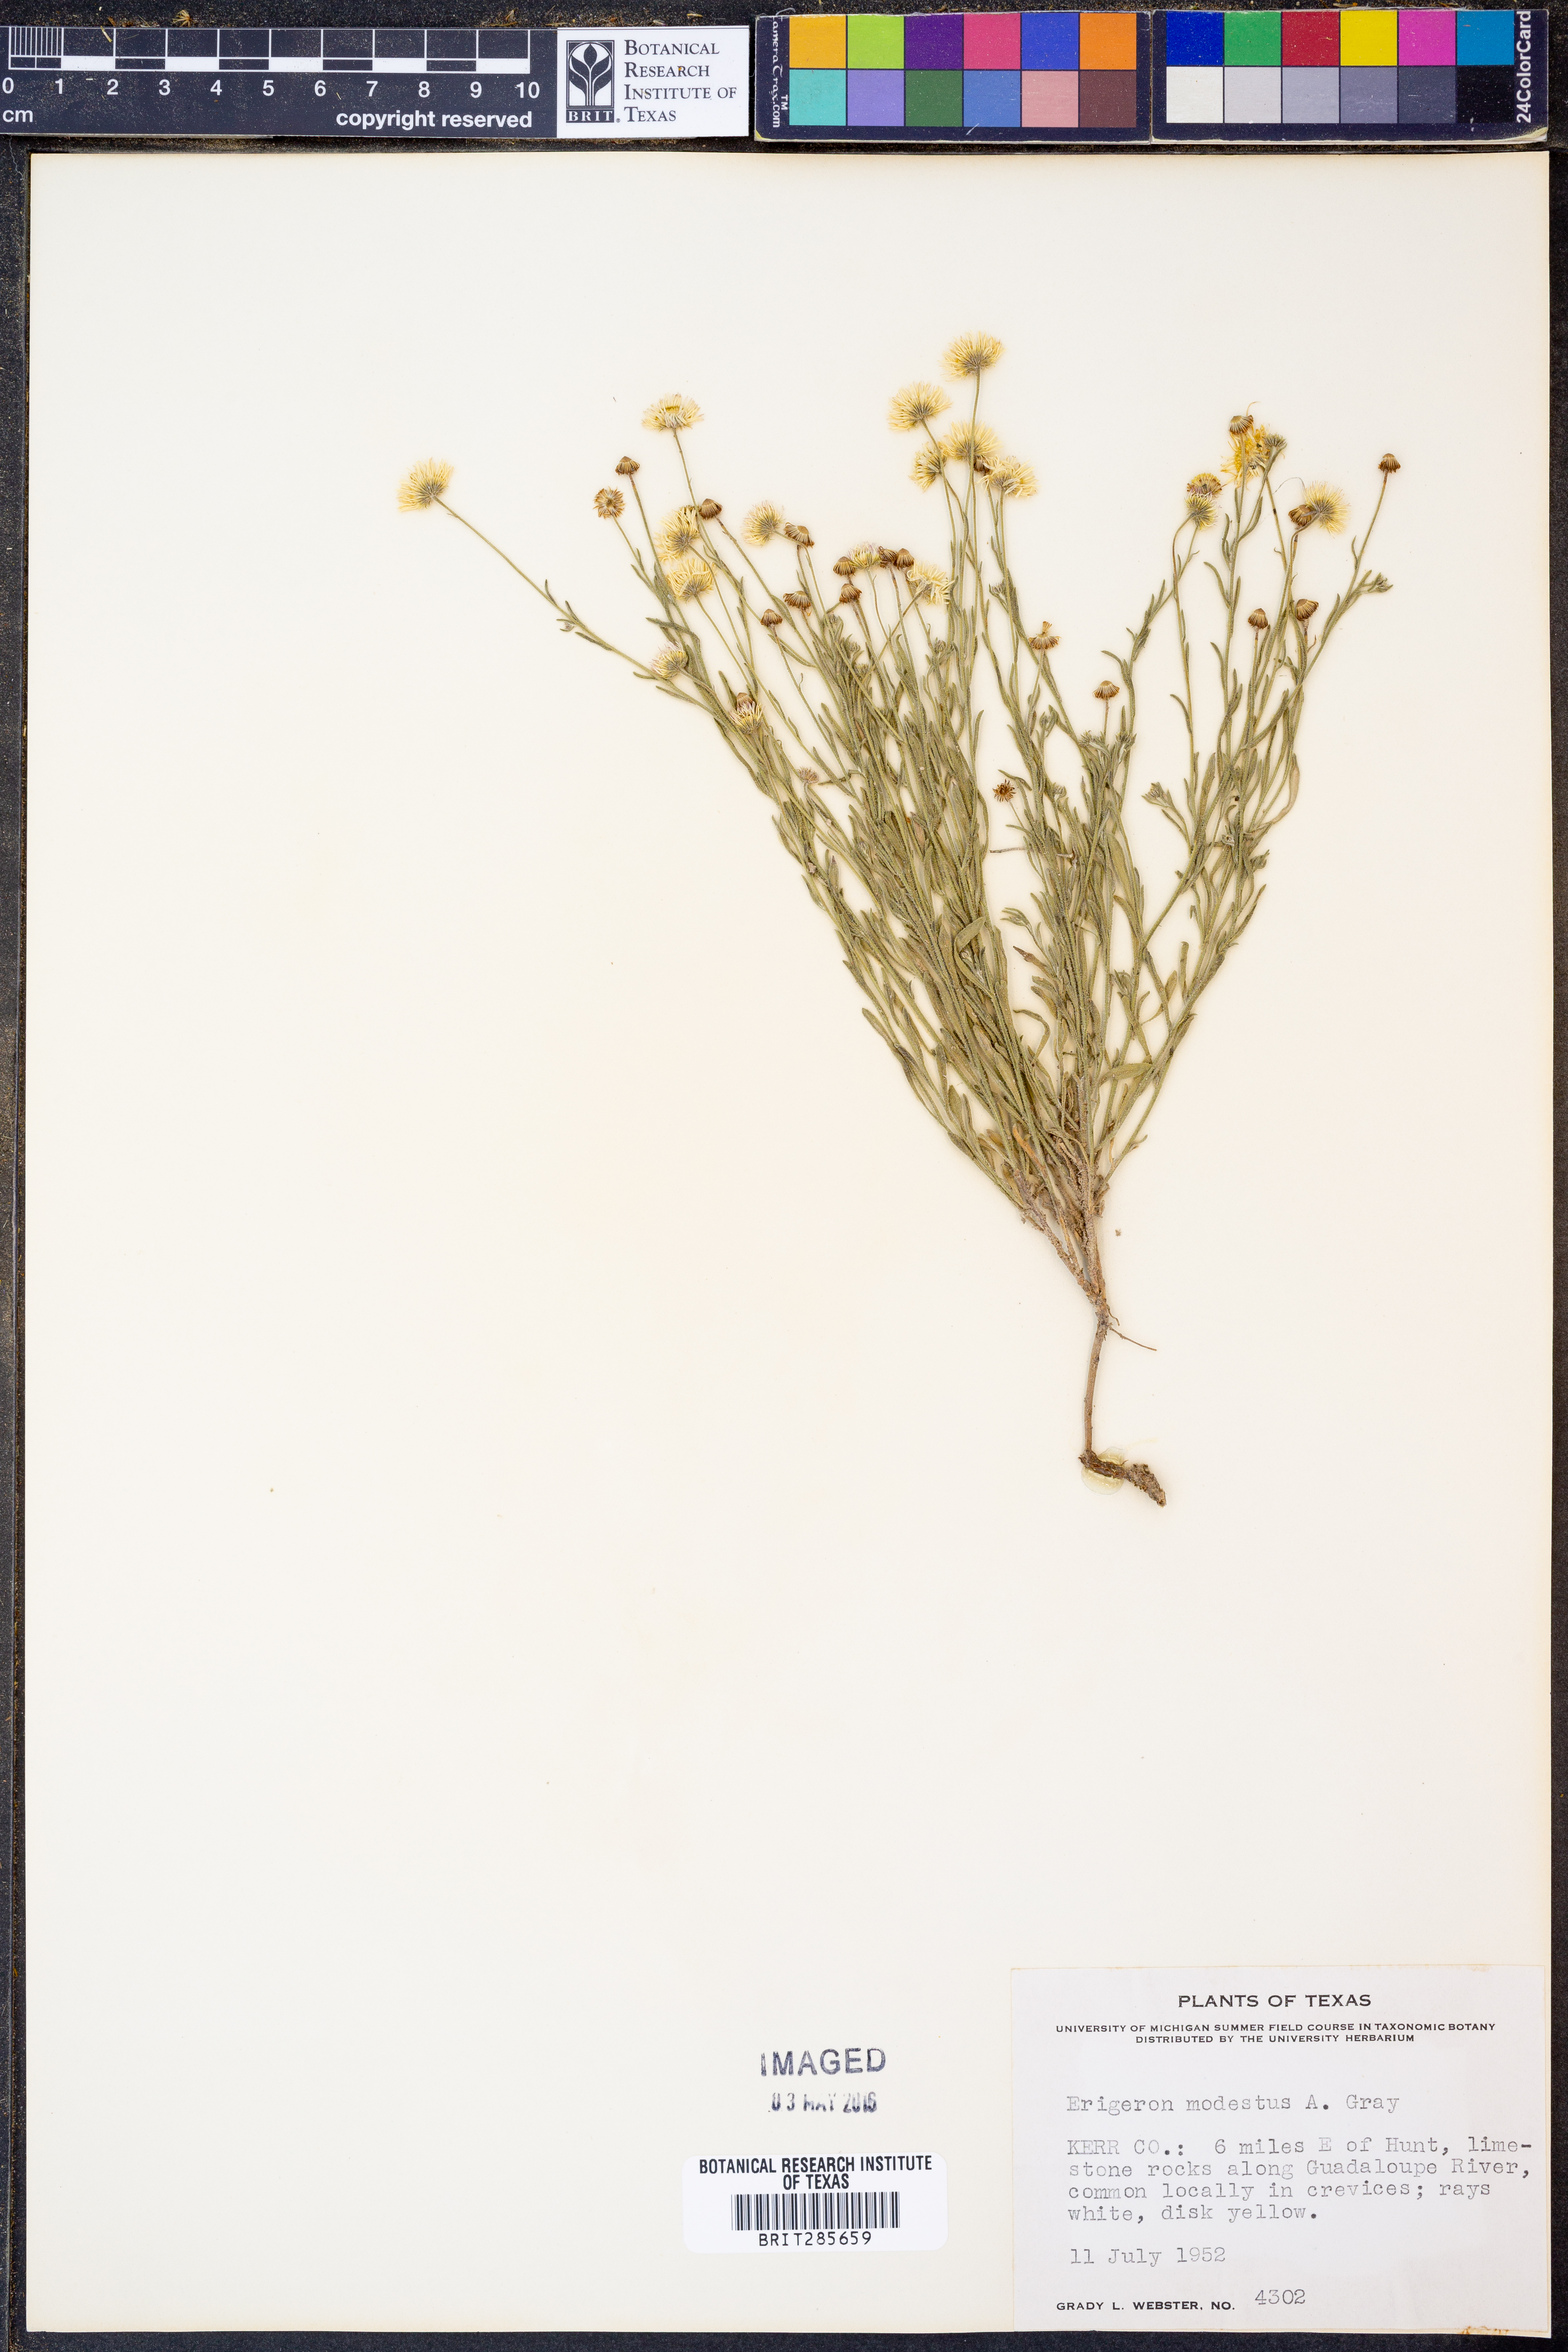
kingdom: Plantae
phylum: Tracheophyta
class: Magnoliopsida
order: Asterales
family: Asteraceae
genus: Erigeron
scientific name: Erigeron modestus
